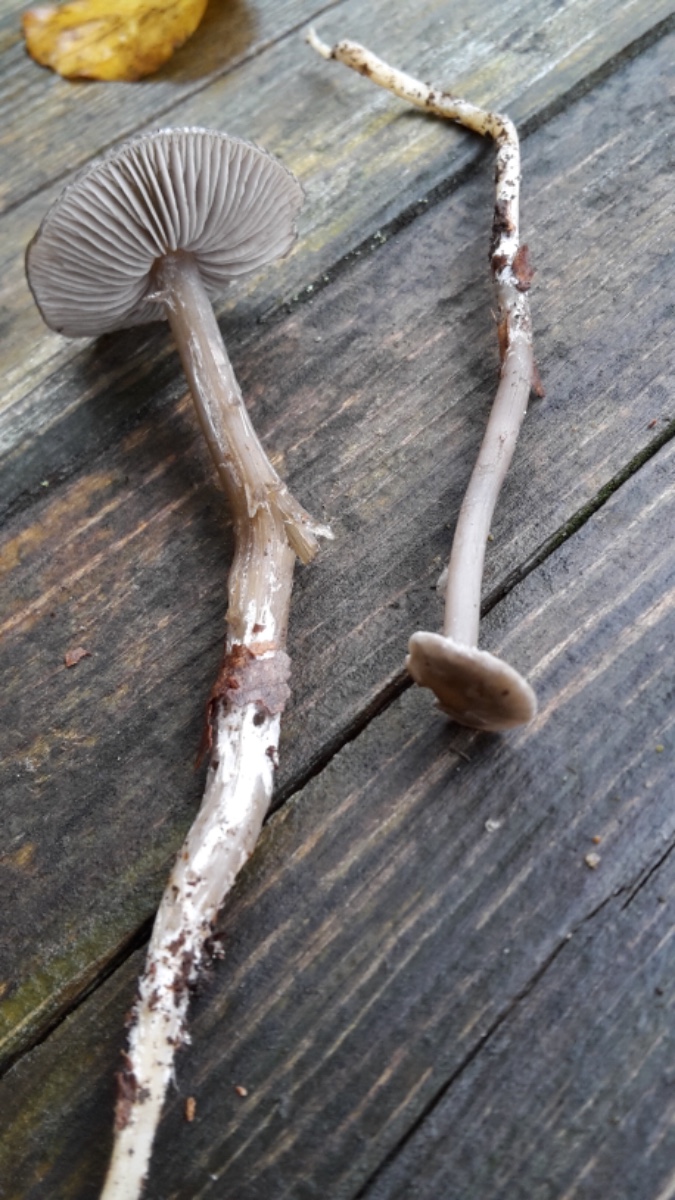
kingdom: Fungi
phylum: Basidiomycota
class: Agaricomycetes
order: Agaricales
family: Lyophyllaceae
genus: Tephrocybe
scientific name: Tephrocybe rancida
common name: mel-gråblad
